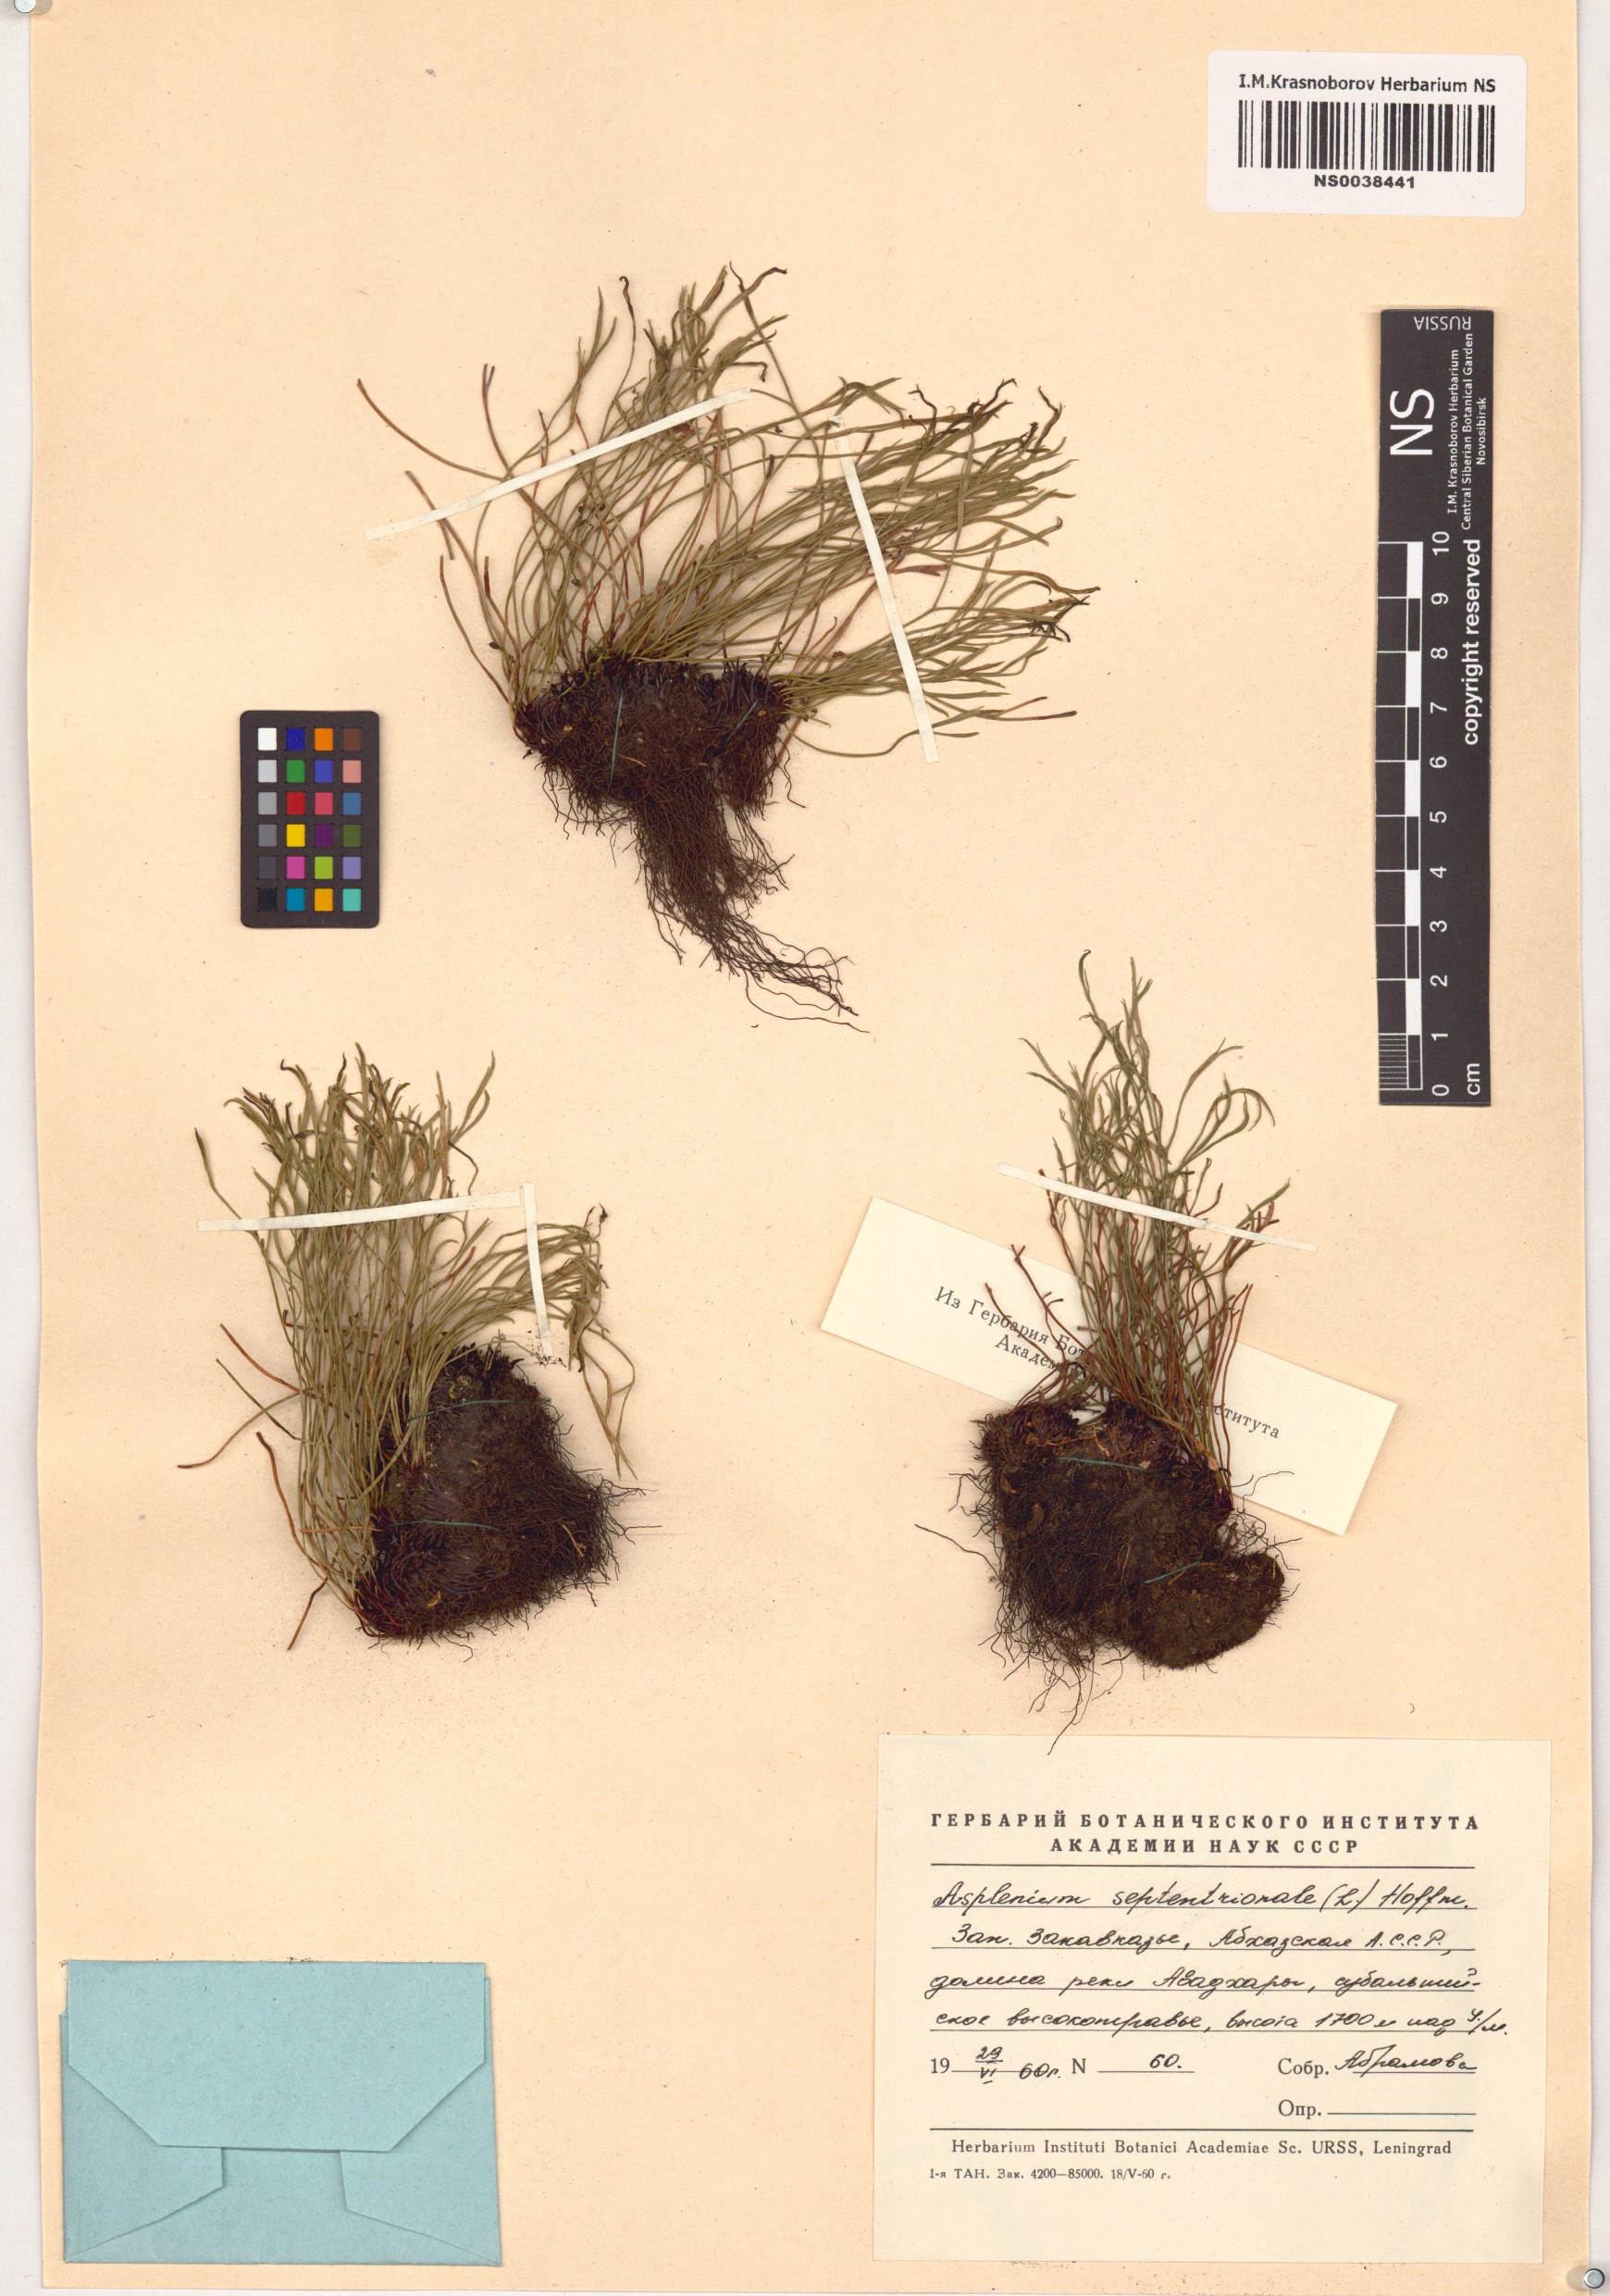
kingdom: Plantae
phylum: Tracheophyta
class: Polypodiopsida
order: Polypodiales
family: Aspleniaceae
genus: Asplenium
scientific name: Asplenium septentrionale
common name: Forked spleenwort
